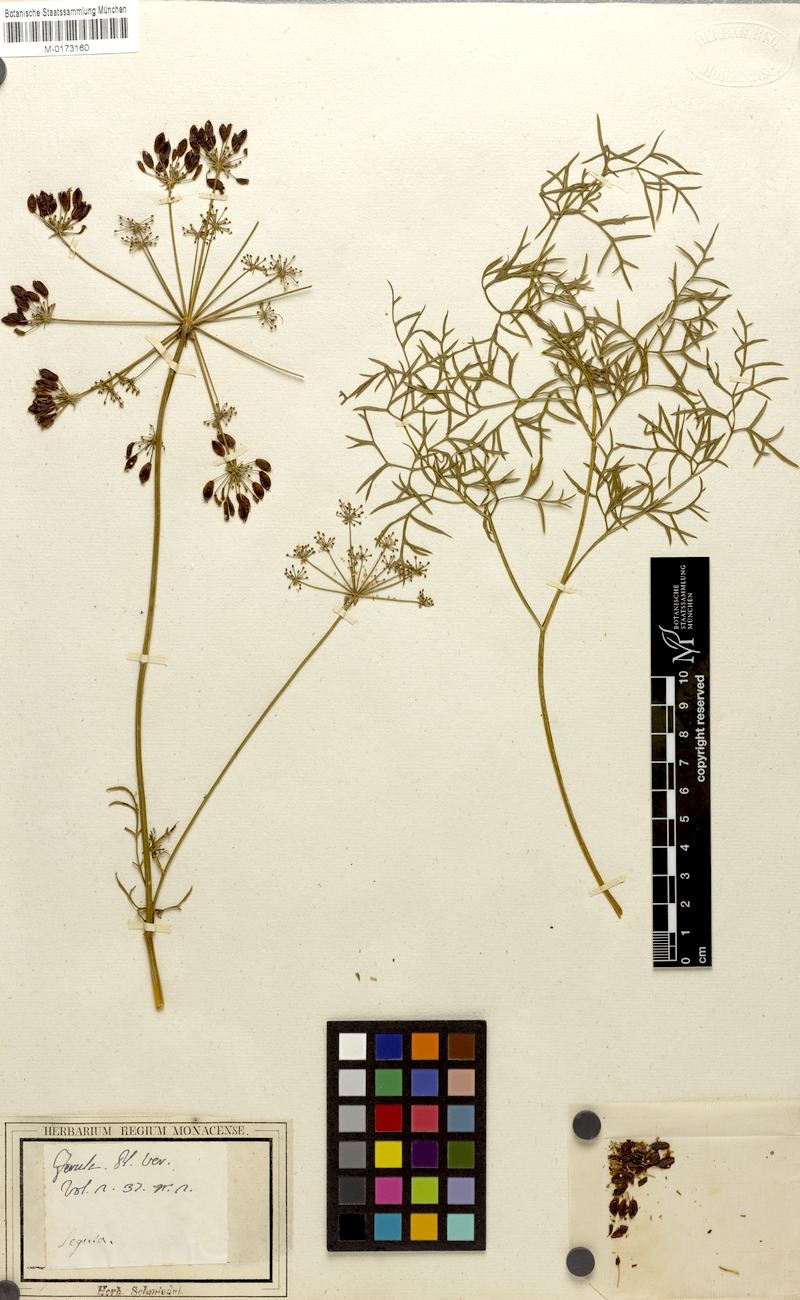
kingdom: Plantae
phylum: Tracheophyta
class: Magnoliopsida
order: Apiales
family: Apiaceae
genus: Peucedanum
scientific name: Peucedanum austriacum
